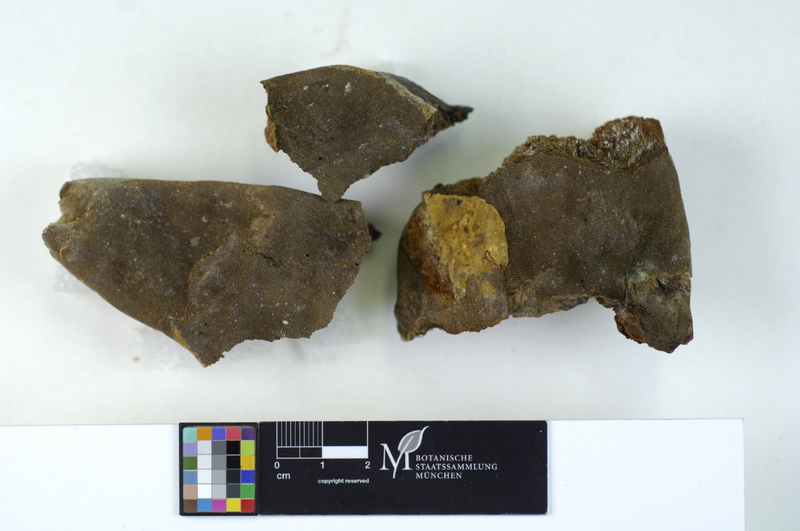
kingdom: Fungi
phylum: Basidiomycota
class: Agaricomycetes
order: Hymenochaetales
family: Hymenochaetaceae
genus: Phellinus
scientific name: Phellinus tremulae
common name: Aspen bracket
